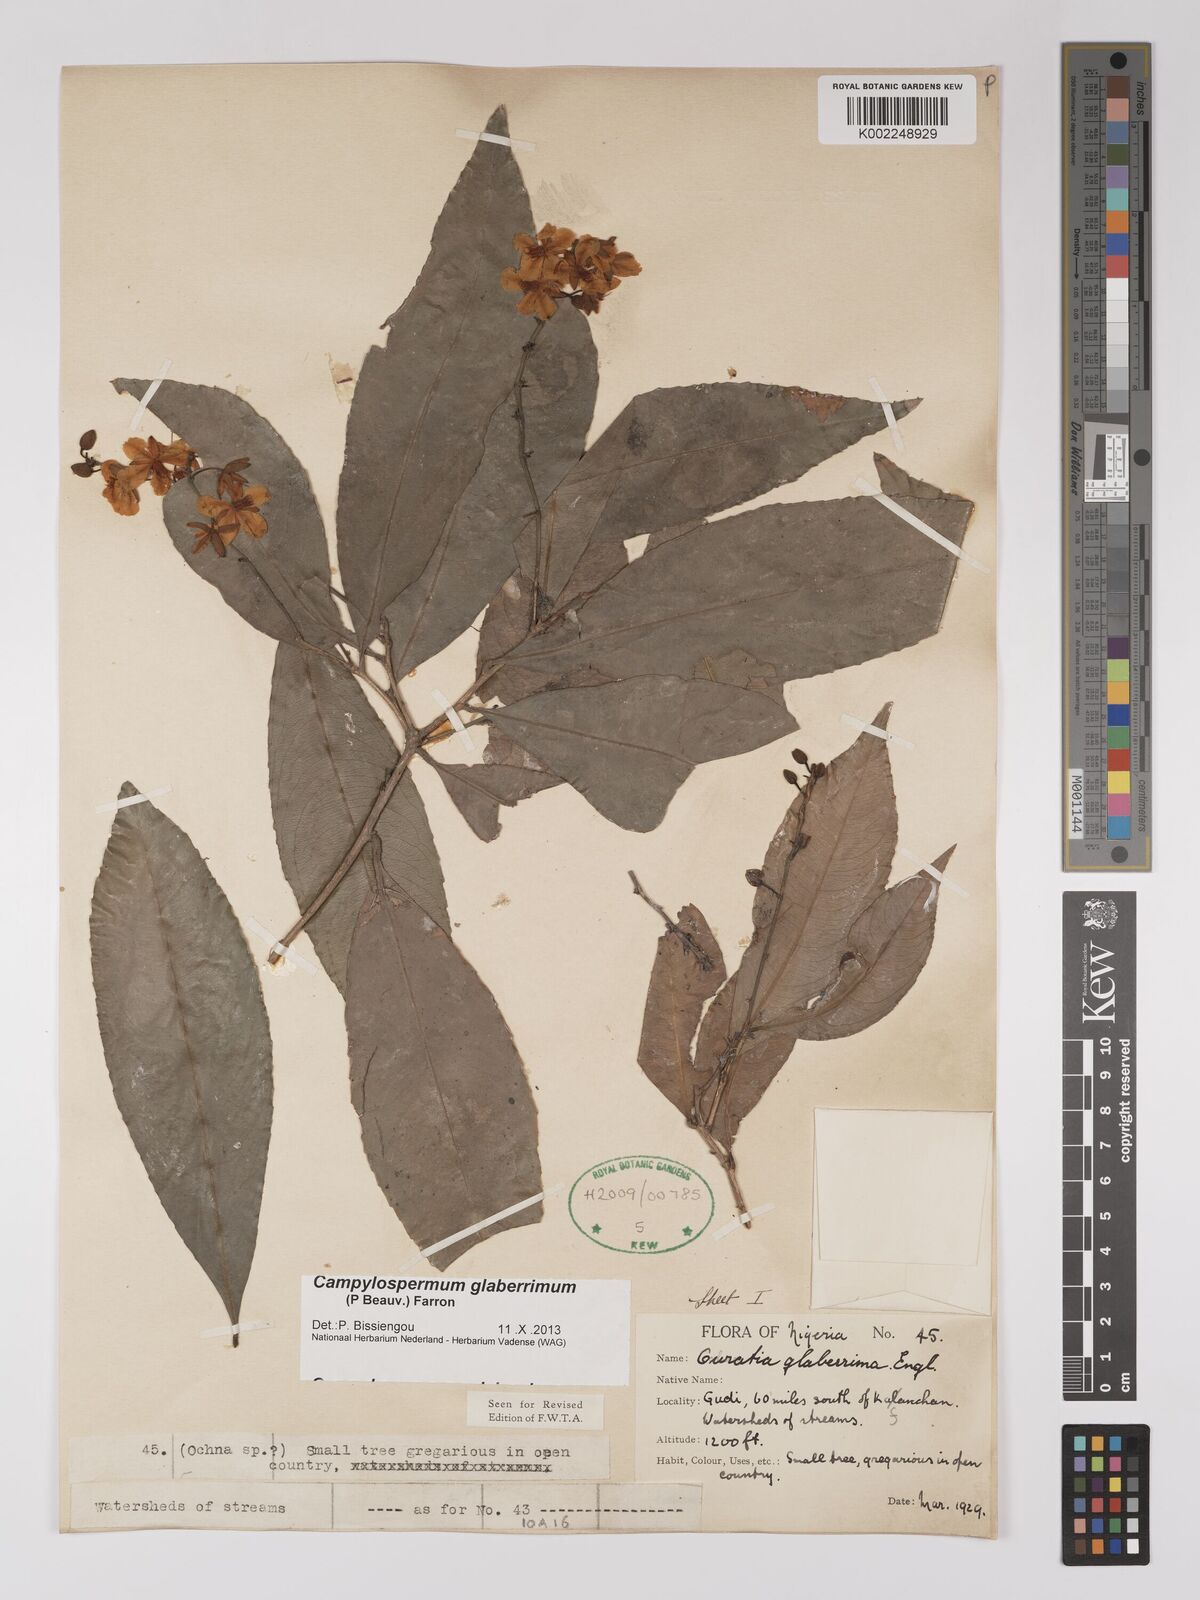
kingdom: Plantae
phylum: Tracheophyta
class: Magnoliopsida
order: Malpighiales
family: Ochnaceae
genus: Campylospermum
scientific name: Campylospermum glaberrimum
